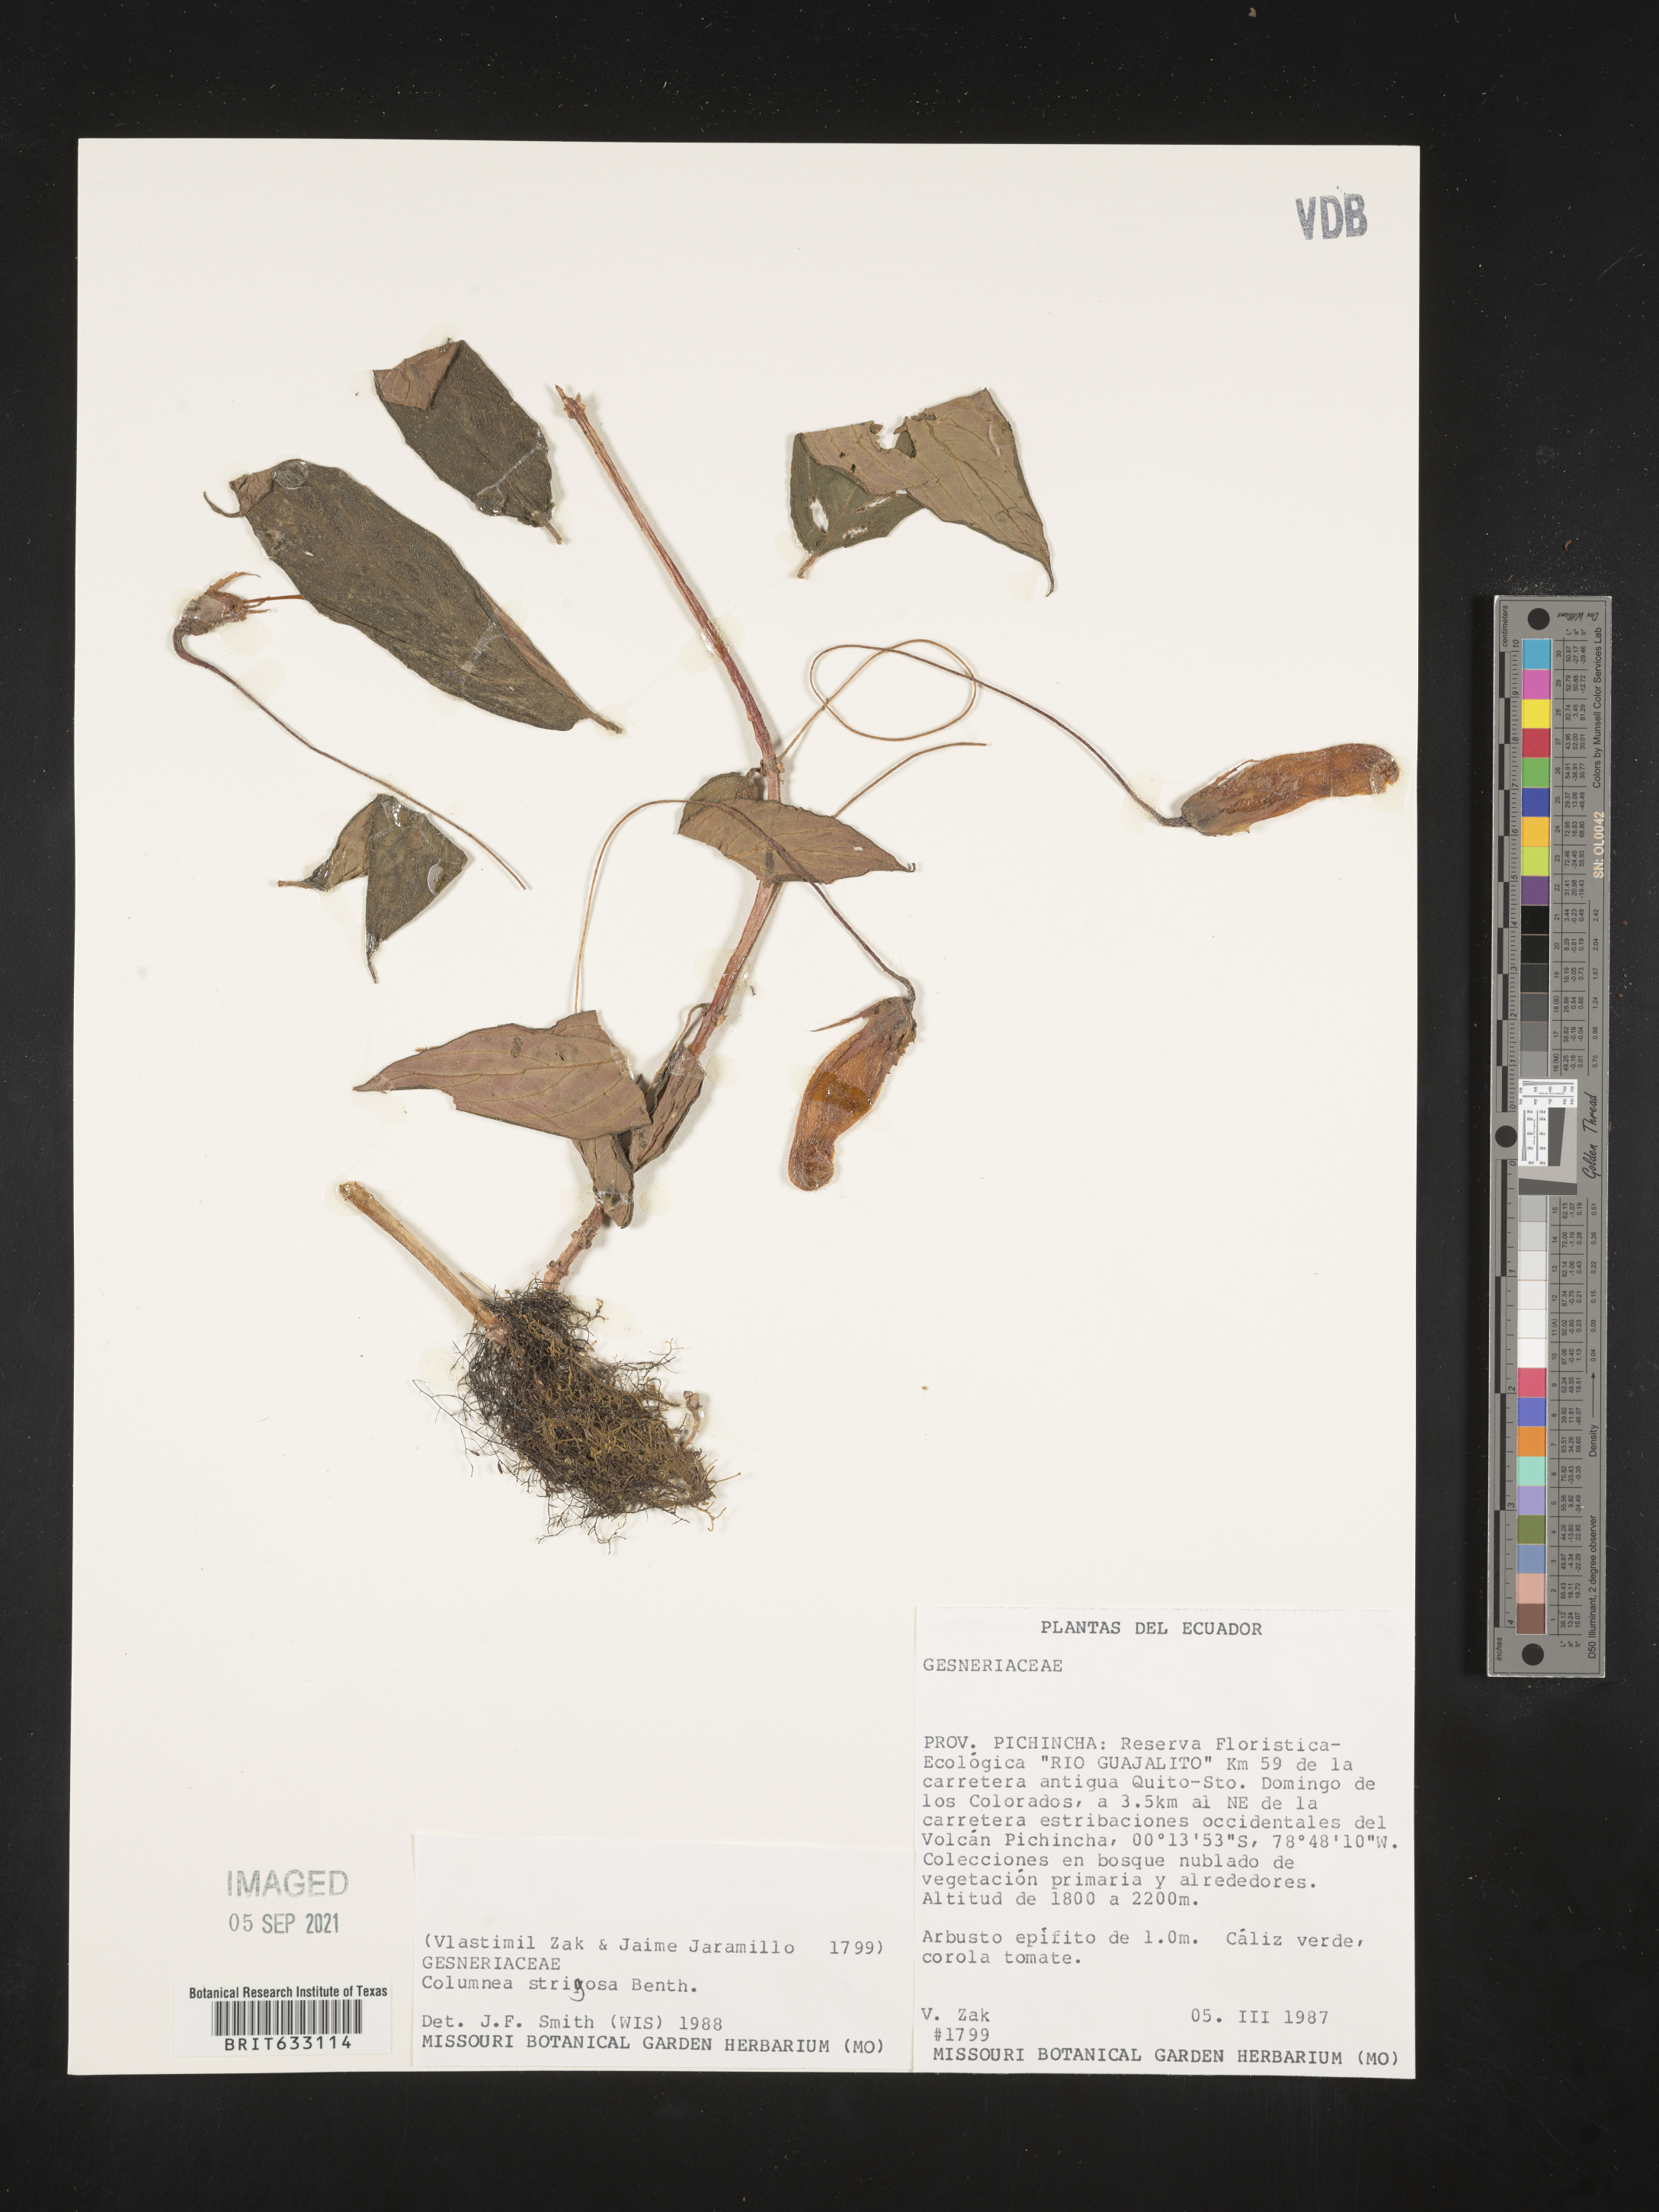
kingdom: Plantae
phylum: Tracheophyta
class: Magnoliopsida
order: Lamiales
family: Gesneriaceae
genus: Columnea
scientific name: Columnea
